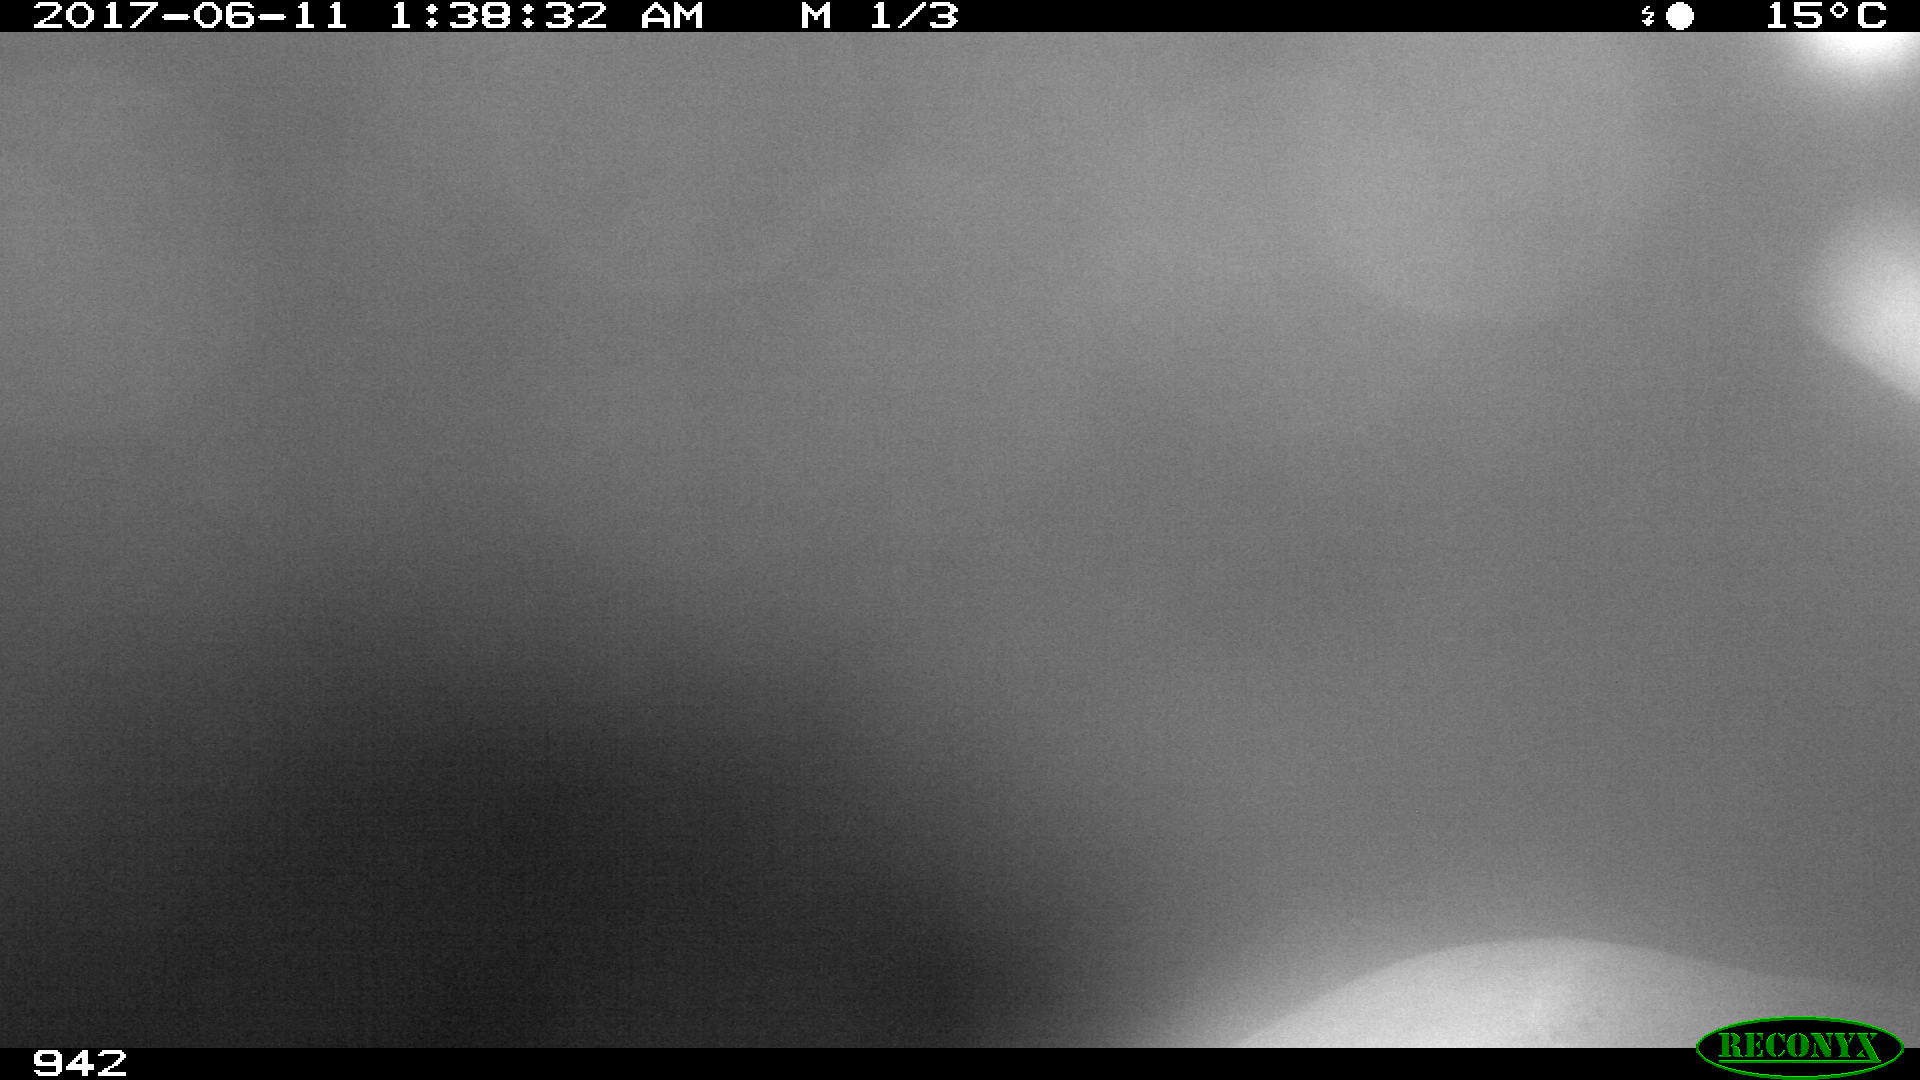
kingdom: Animalia
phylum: Chordata
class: Mammalia
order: Perissodactyla
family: Equidae
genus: Equus
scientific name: Equus caballus
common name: Horse
